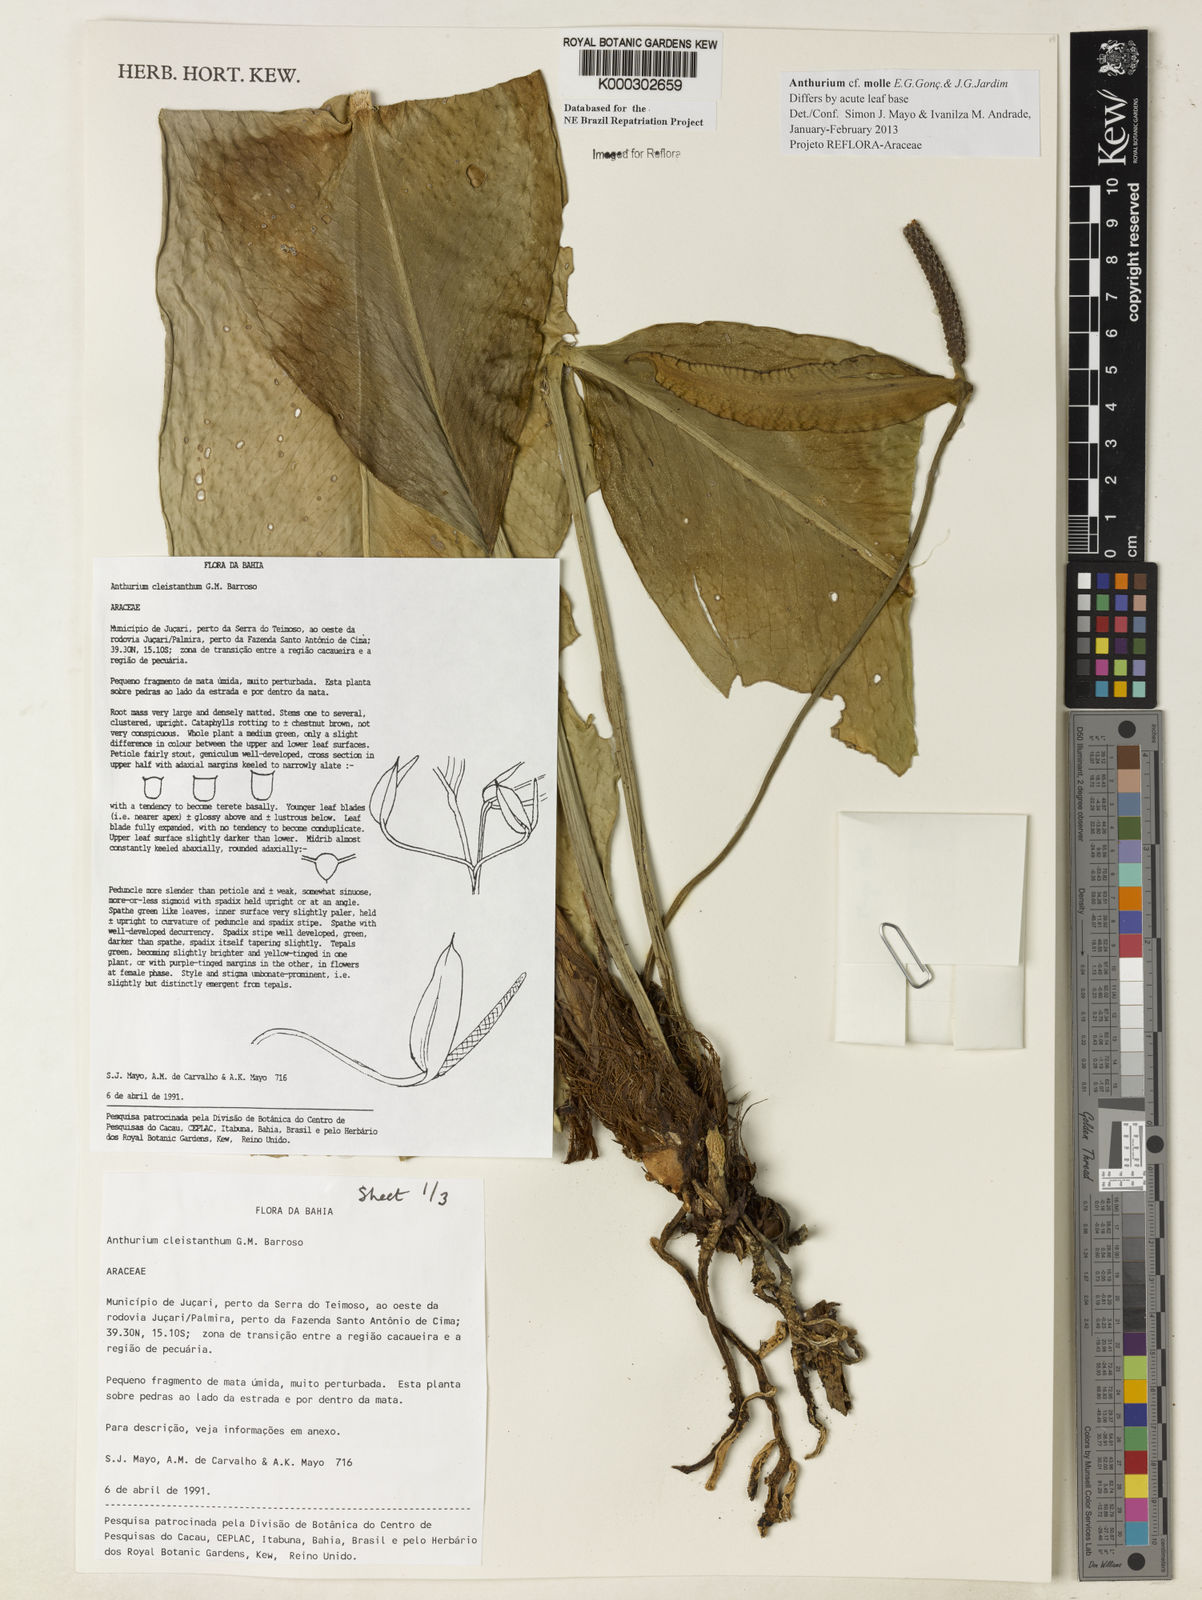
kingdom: Plantae
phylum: Tracheophyta
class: Liliopsida
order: Alismatales
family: Araceae
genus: Anthurium
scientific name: Anthurium cleistanthum
